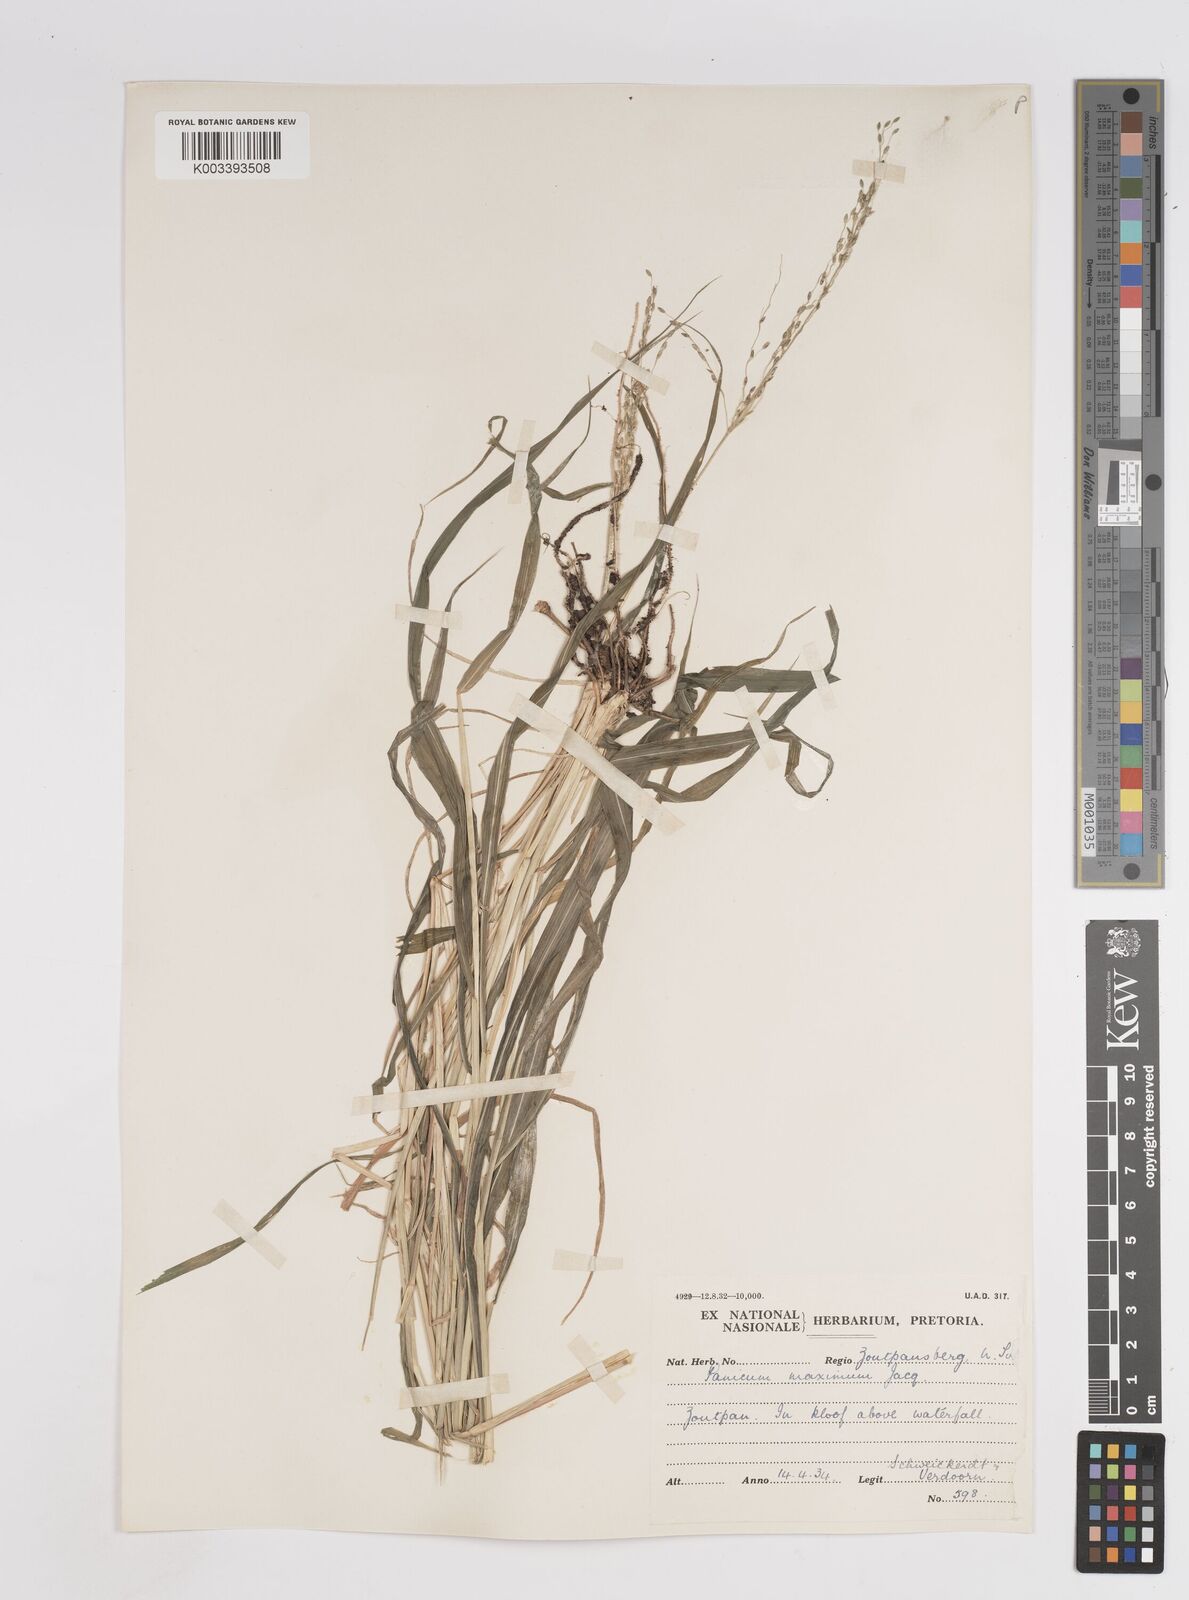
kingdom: Plantae
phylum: Tracheophyta
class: Liliopsida
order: Poales
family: Poaceae
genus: Megathyrsus
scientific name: Megathyrsus maximus
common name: Guineagrass
